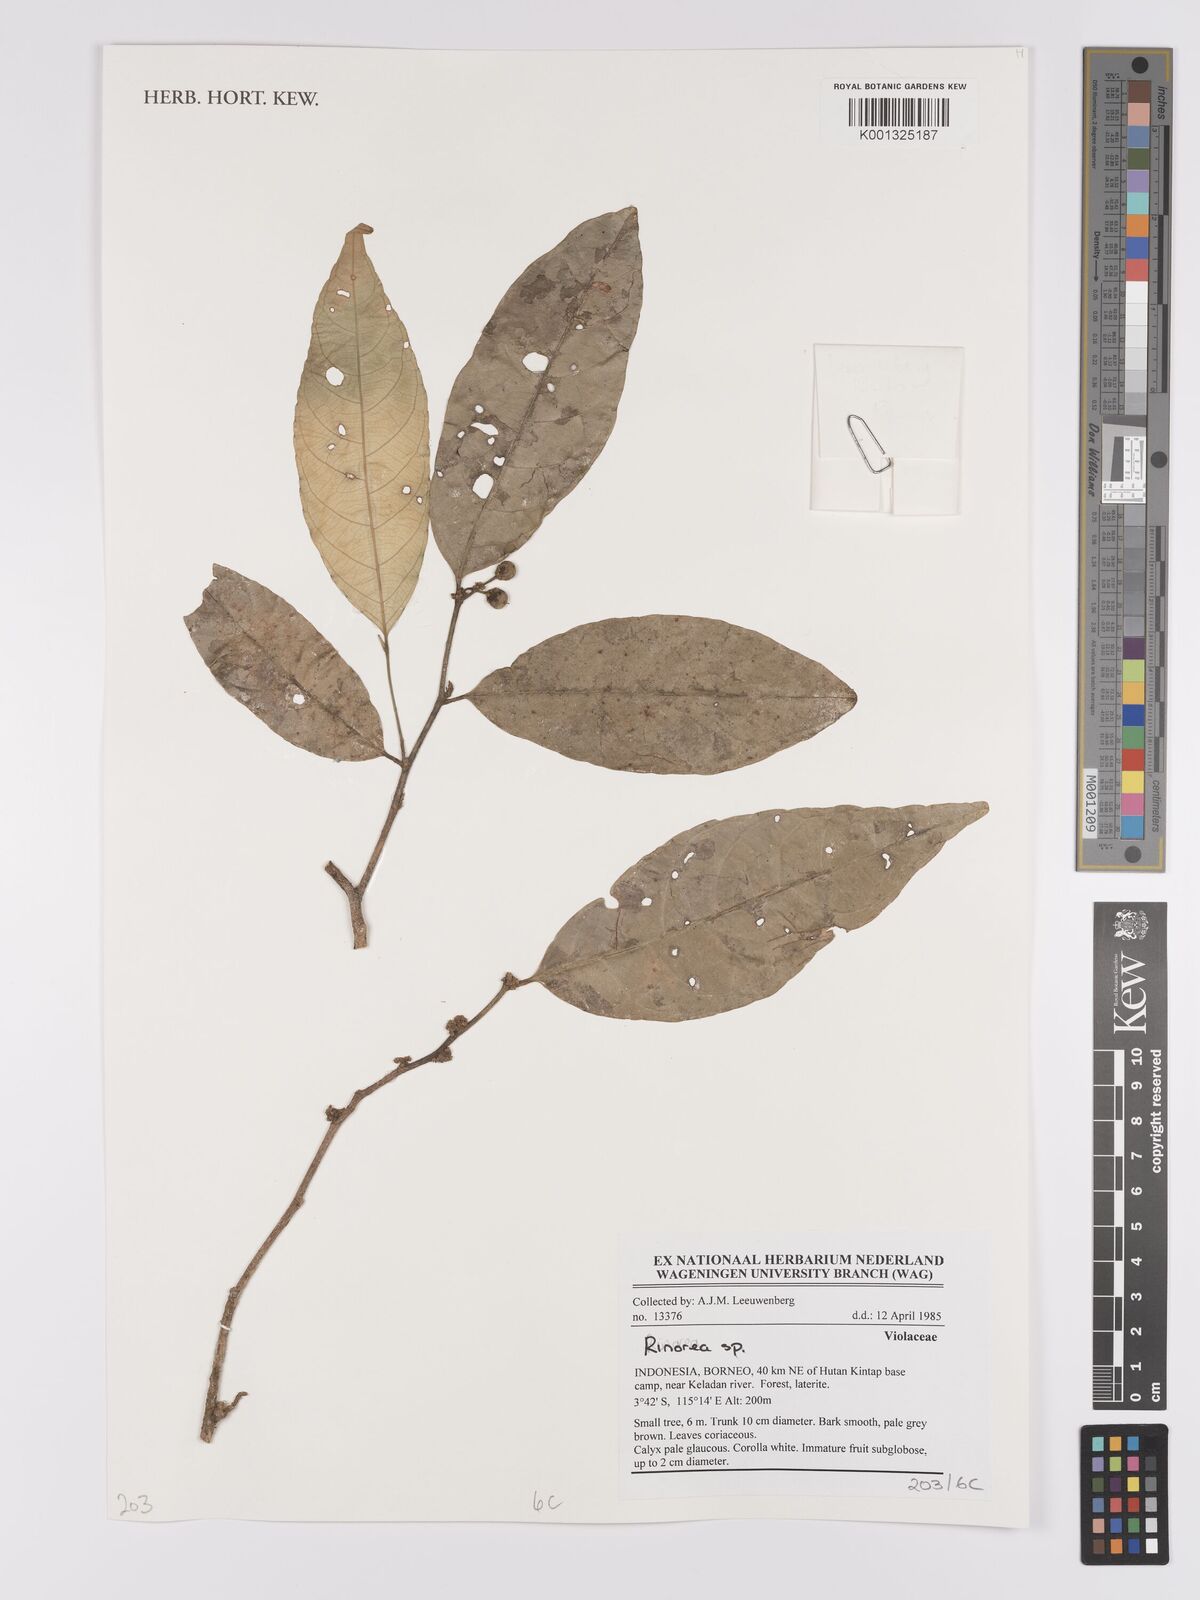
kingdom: Plantae
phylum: Tracheophyta
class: Magnoliopsida
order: Malpighiales
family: Violaceae
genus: Rinorea
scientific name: Rinorea
